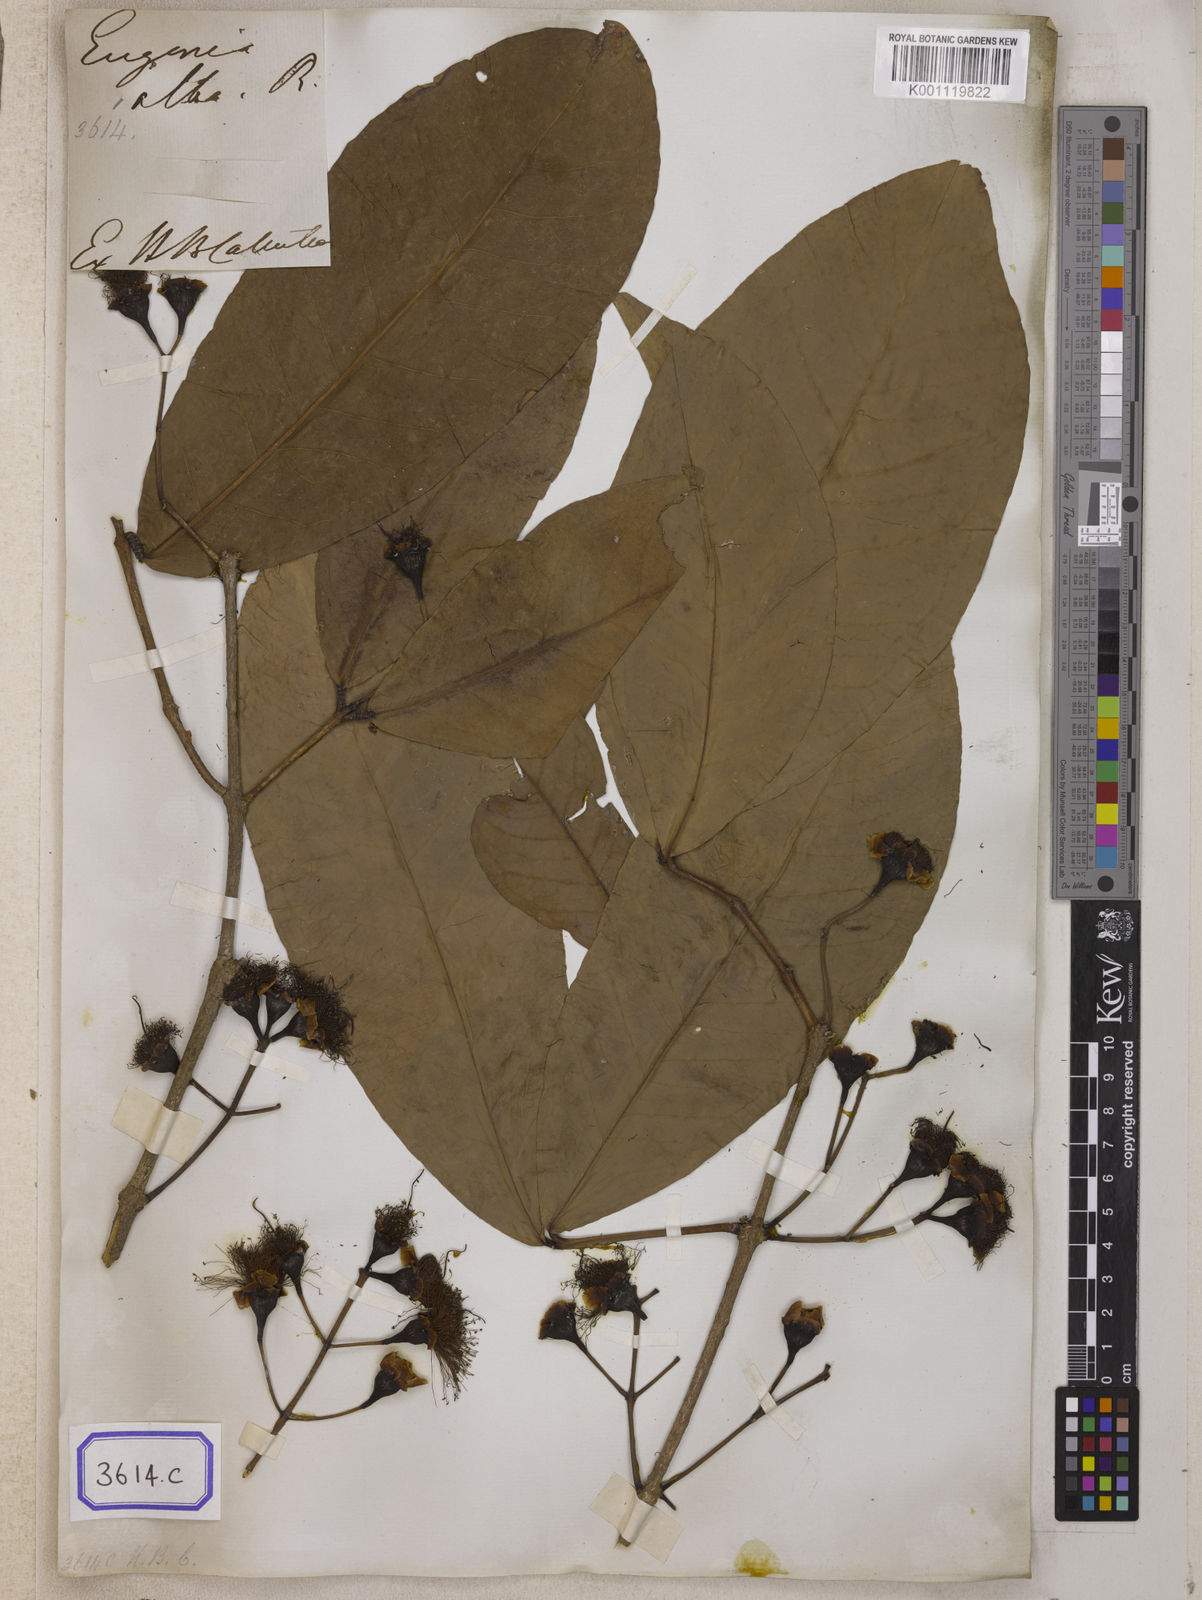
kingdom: Plantae
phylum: Tracheophyta
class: Magnoliopsida
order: Myrtales
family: Myrtaceae
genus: Syzygium
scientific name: Syzygium aqueum
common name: Water-apple
